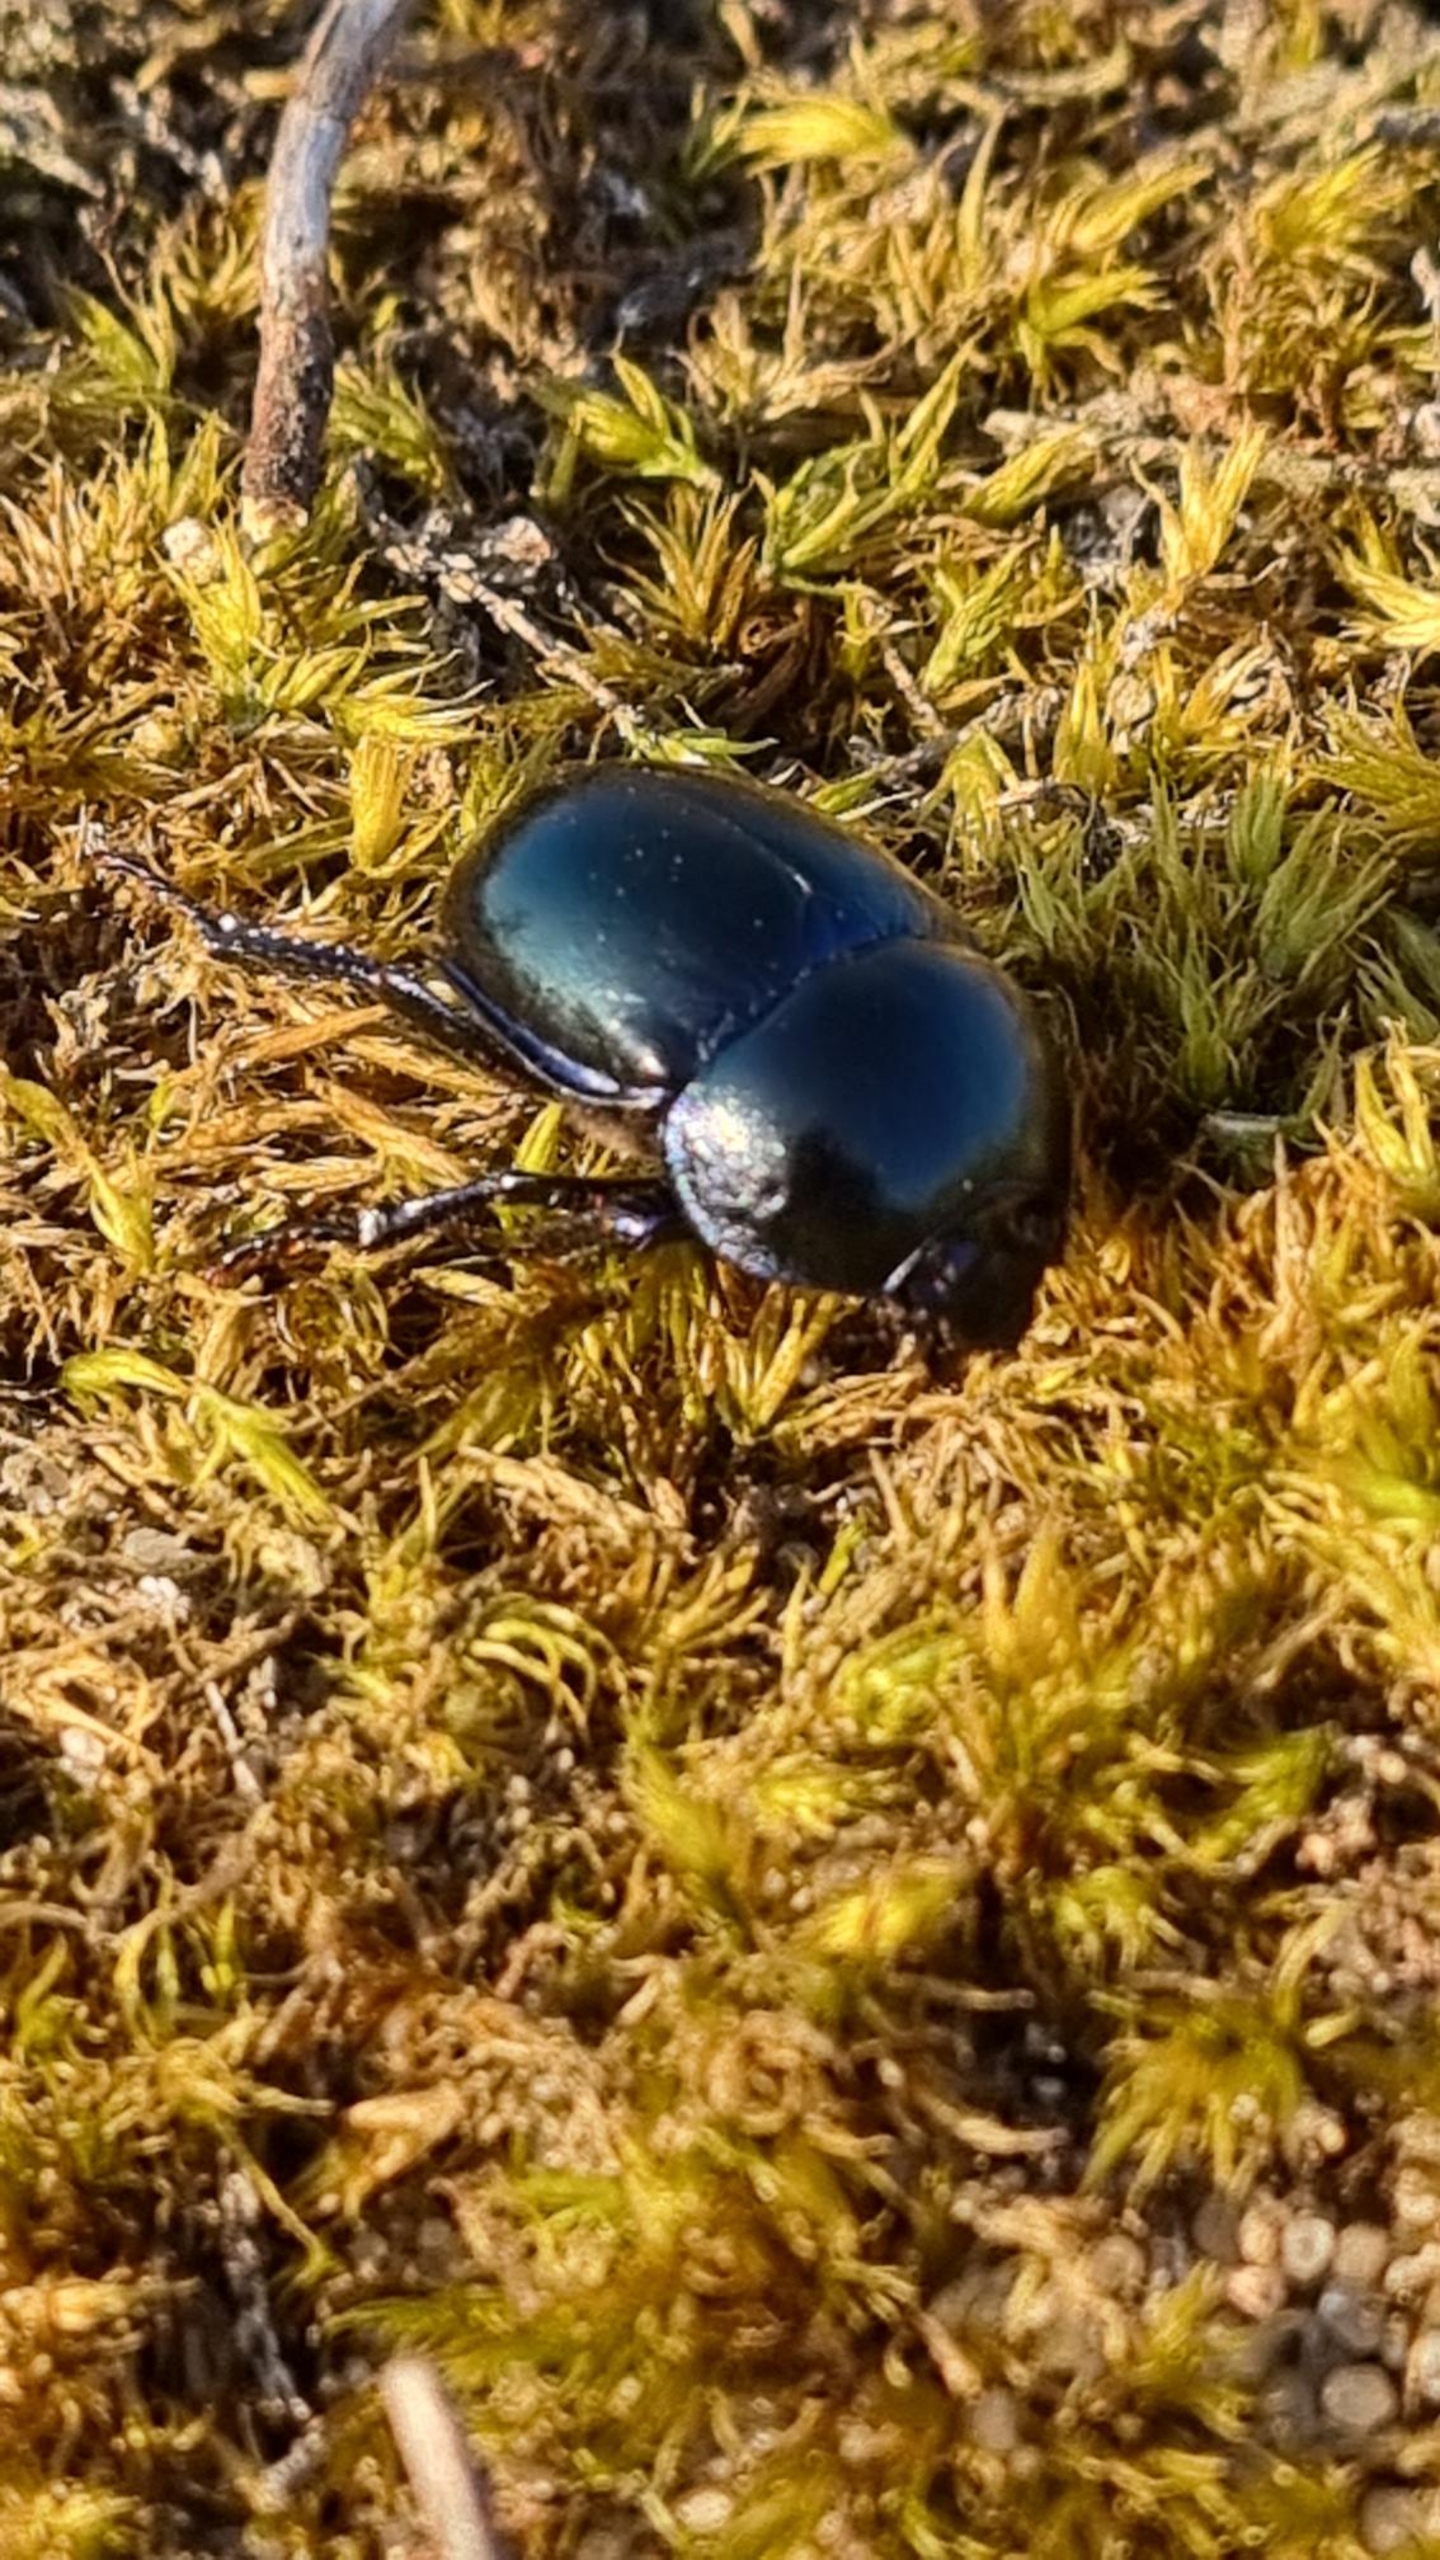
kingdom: Animalia
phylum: Arthropoda
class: Insecta
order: Coleoptera
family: Geotrupidae
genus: Trypocopris
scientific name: Trypocopris vernalis
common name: Glat skarnbasse
